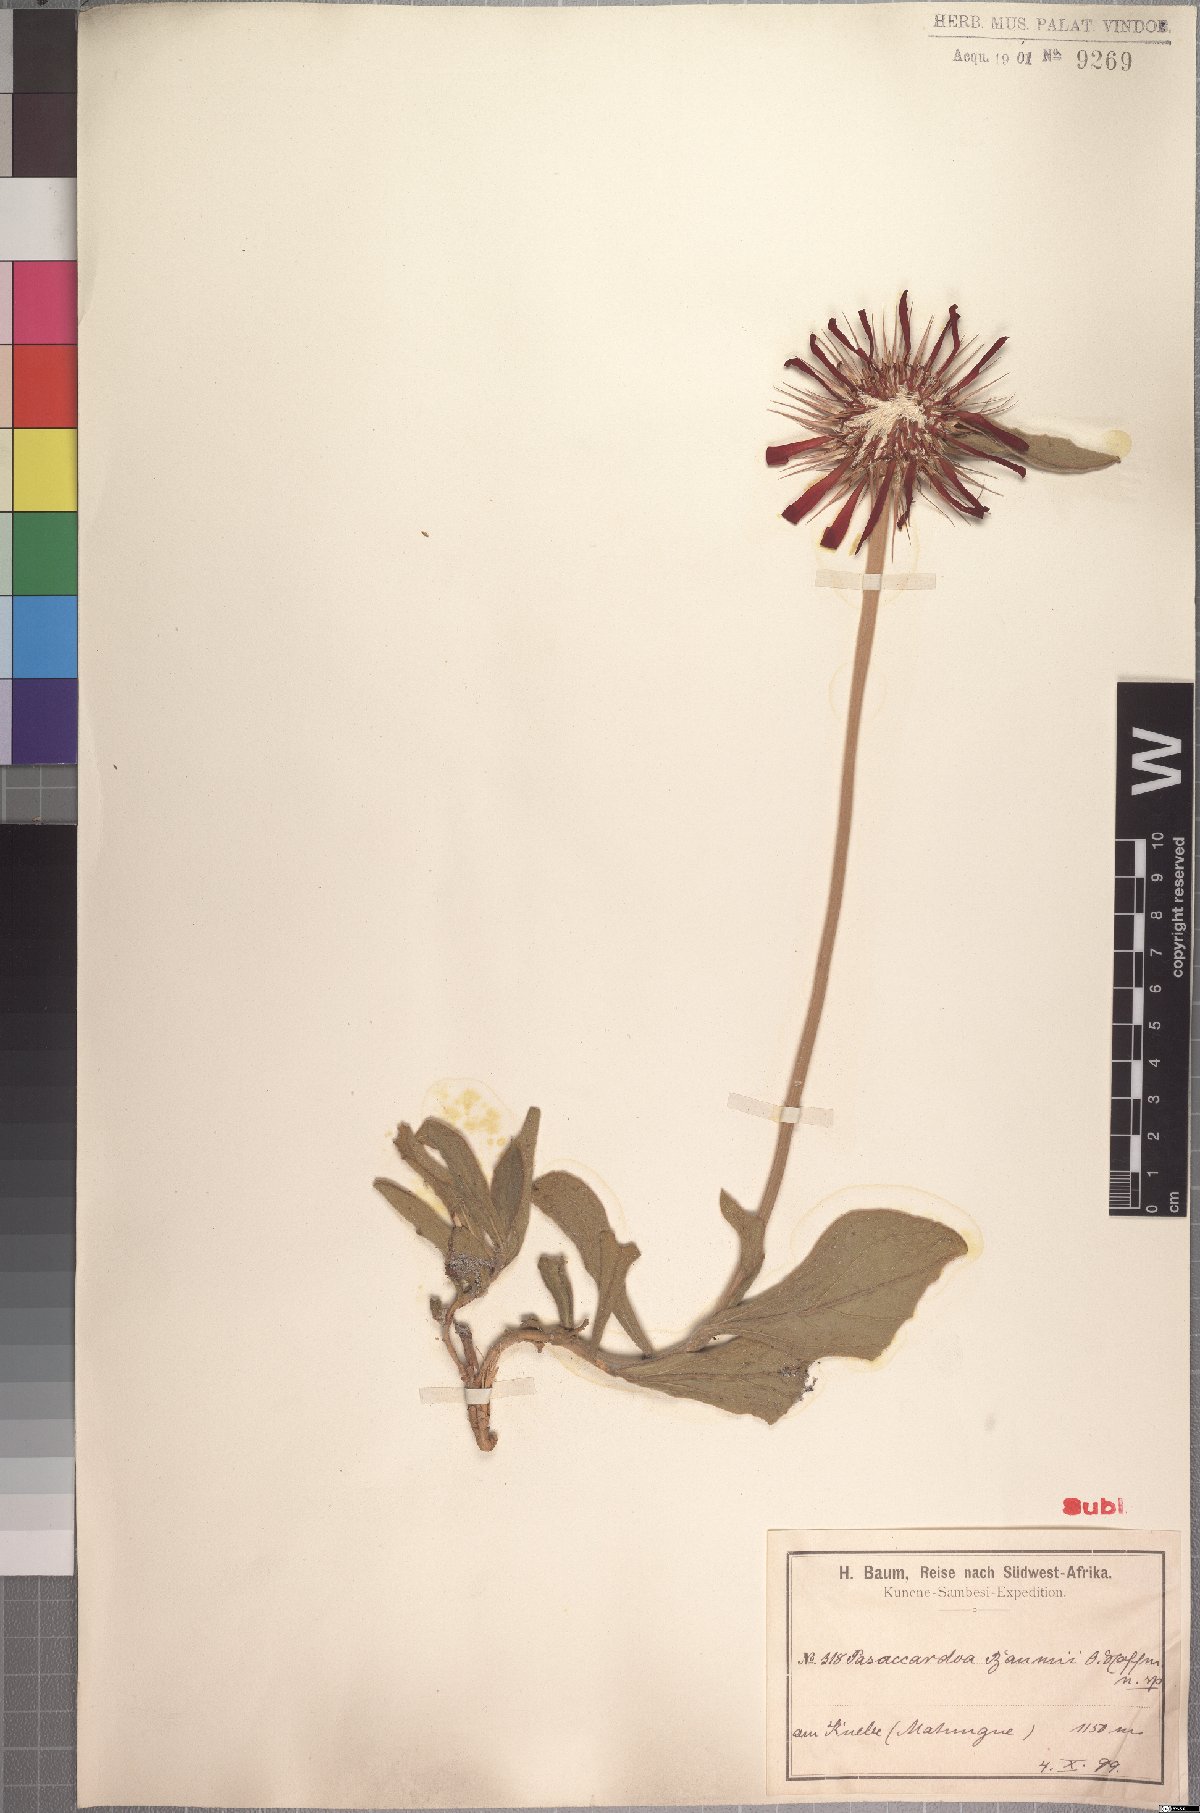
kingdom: Plantae
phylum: Tracheophyta
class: Magnoliopsida
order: Asterales
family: Asteraceae
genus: Pasaccardoa
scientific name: Pasaccardoa baumii
